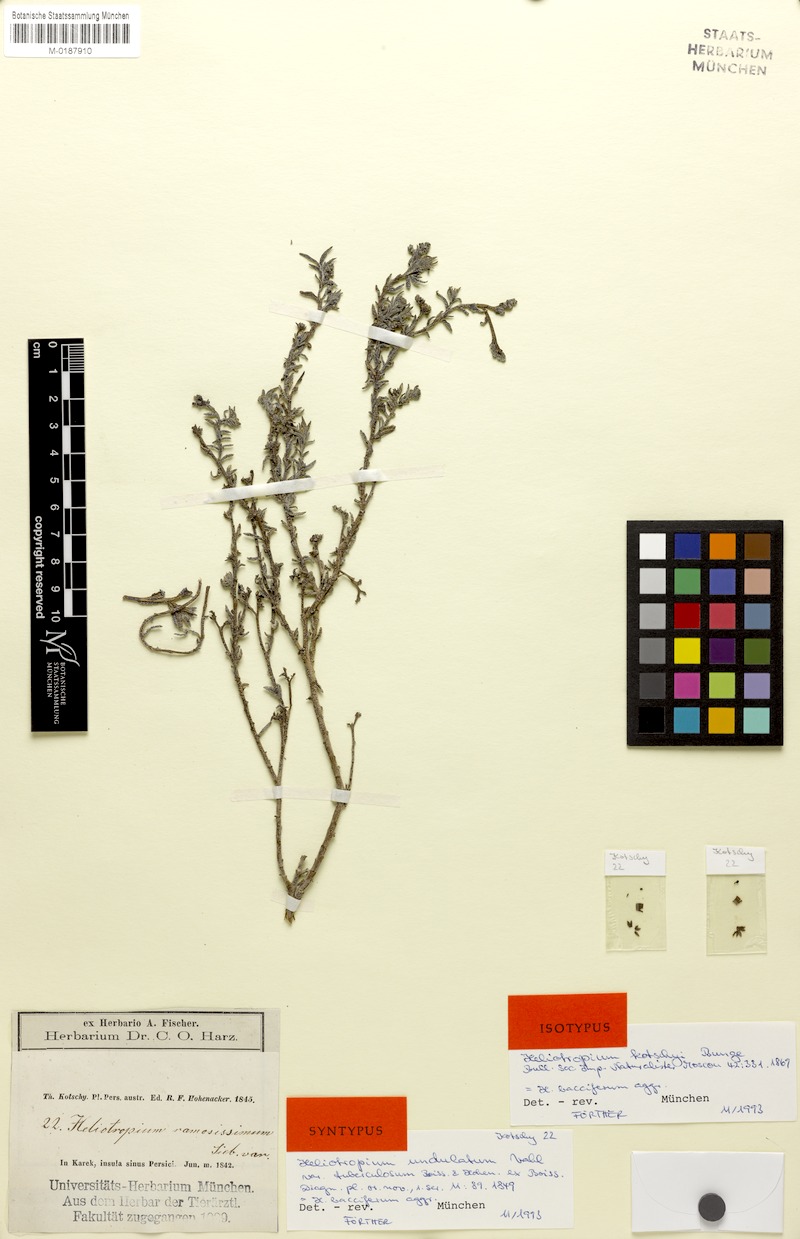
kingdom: Plantae
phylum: Tracheophyta
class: Magnoliopsida
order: Boraginales
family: Heliotropiaceae
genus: Heliotropium
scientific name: Heliotropium bacciferum
